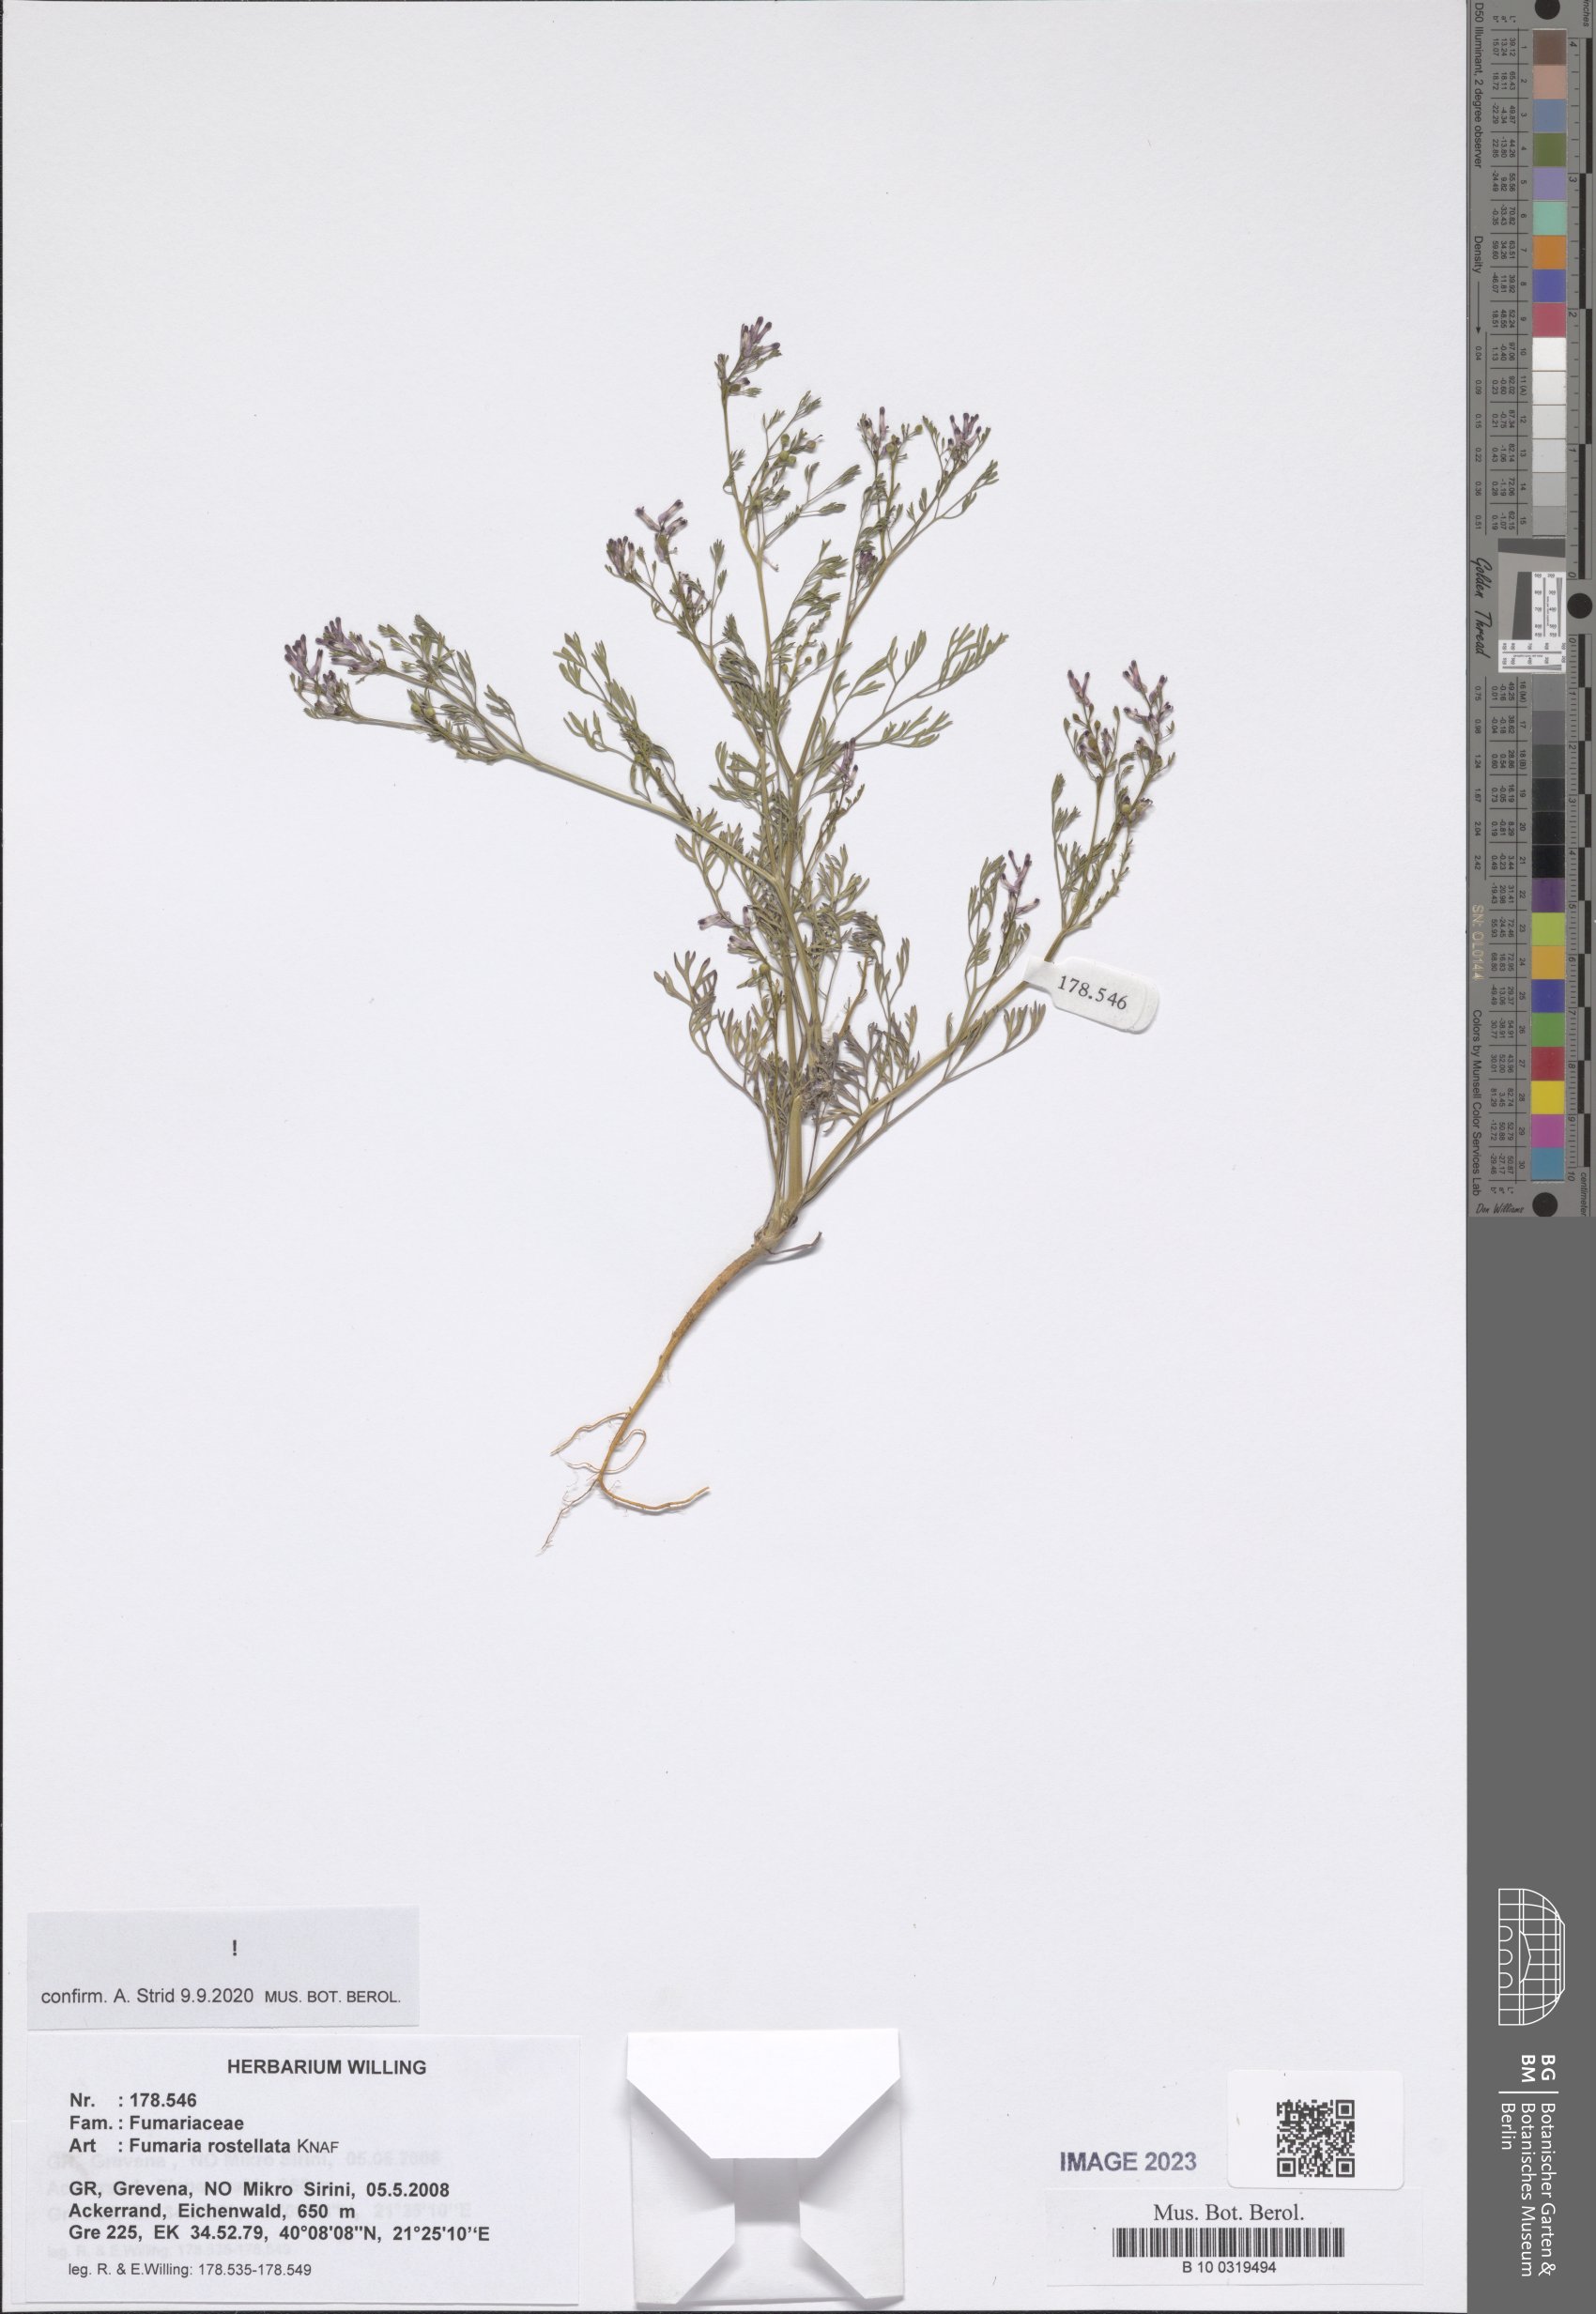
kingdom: Plantae
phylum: Tracheophyta
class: Magnoliopsida
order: Ranunculales
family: Papaveraceae
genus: Fumaria
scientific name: Fumaria rostellata
